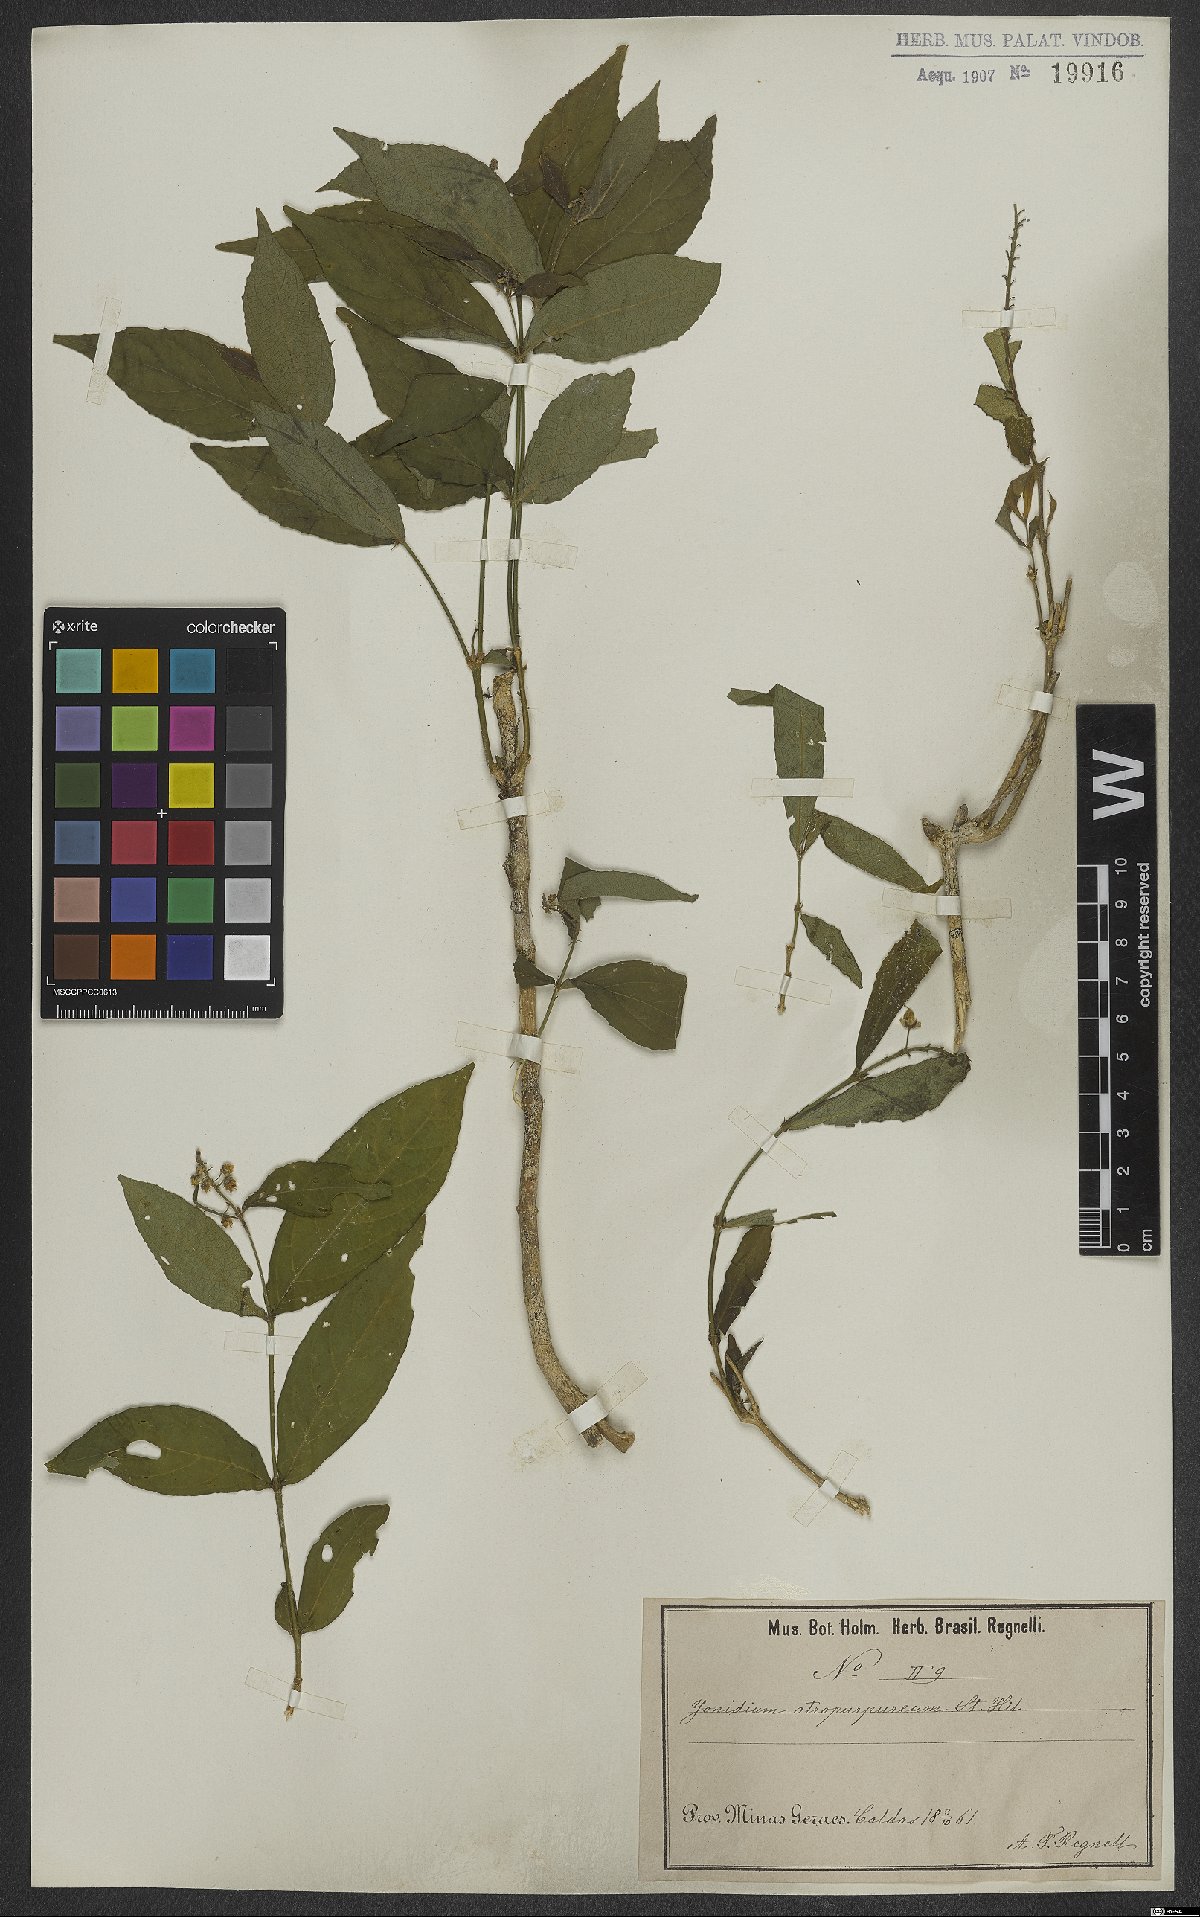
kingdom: Plantae
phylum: Tracheophyta
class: Magnoliopsida
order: Malpighiales
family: Violaceae
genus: Pombalia
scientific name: Pombalia atropurpurea
